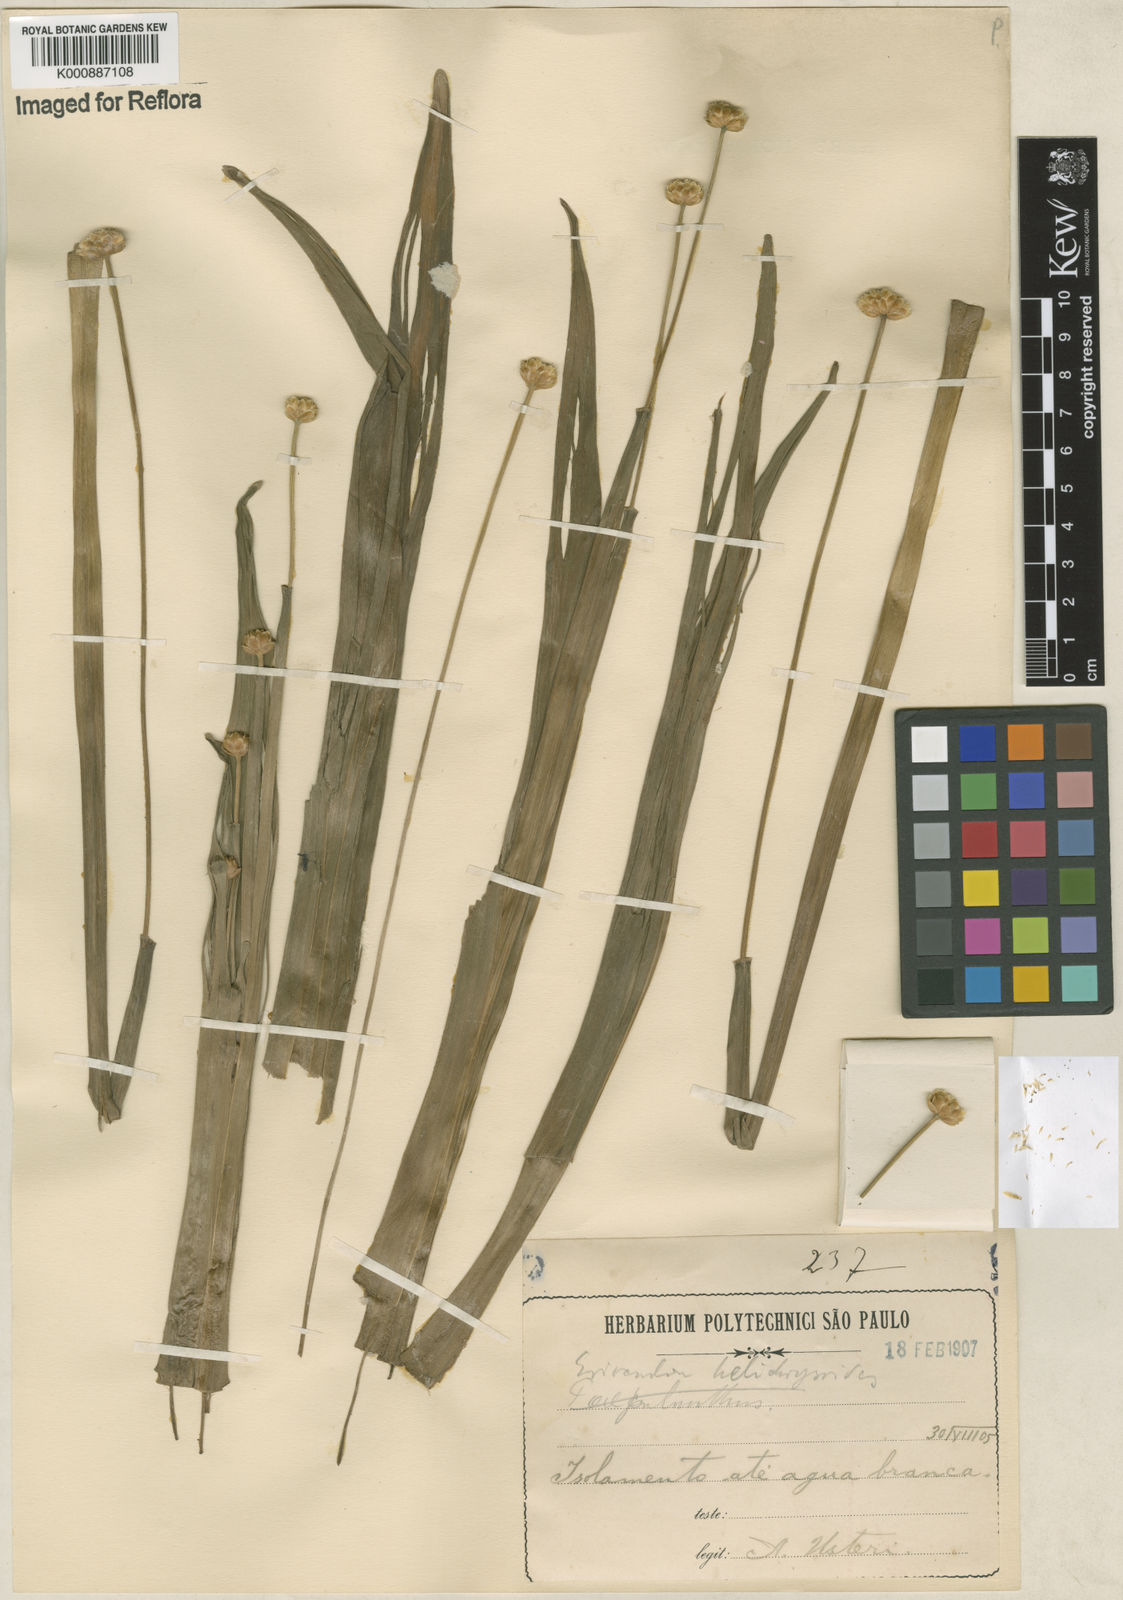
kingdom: Plantae
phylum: Tracheophyta
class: Liliopsida
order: Poales
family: Eriocaulaceae
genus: Paepalanthus
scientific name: Paepalanthus elongatus
